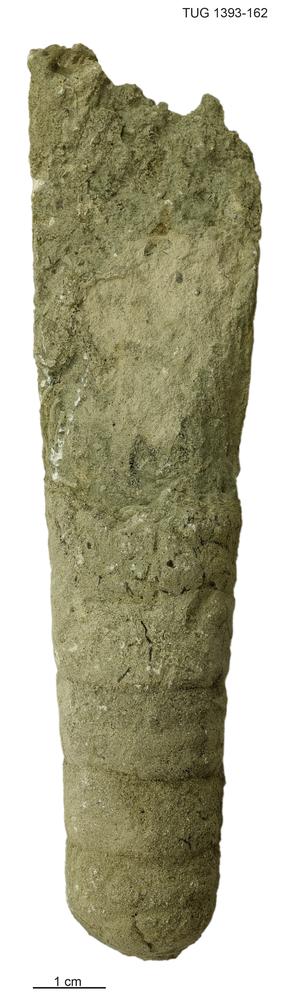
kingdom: Animalia
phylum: Mollusca
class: Cephalopoda
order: Orthocerida
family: Orthoceratidae
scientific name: Orthoceratidae
